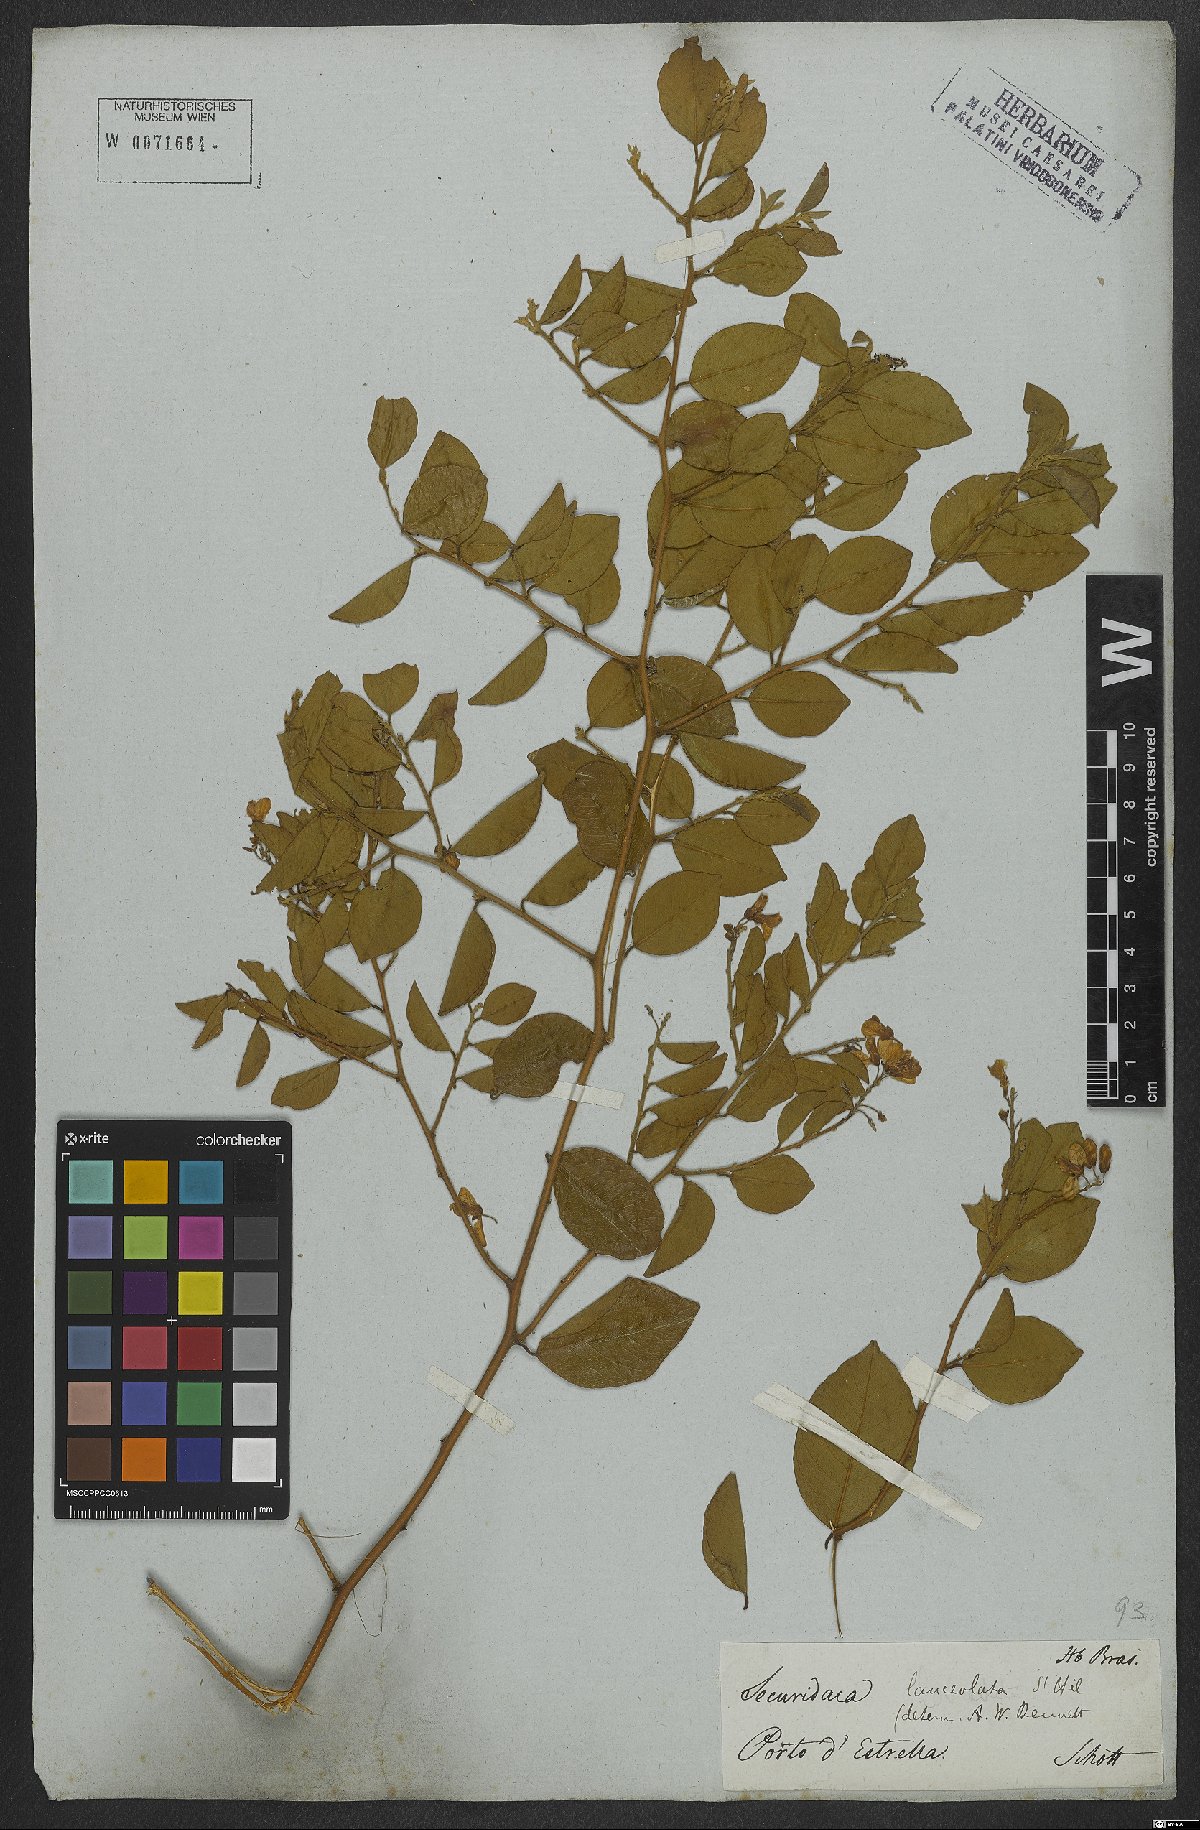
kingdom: Plantae
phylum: Tracheophyta
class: Magnoliopsida
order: Fabales
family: Polygalaceae
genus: Securidaca
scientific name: Securidaca lanceolata
